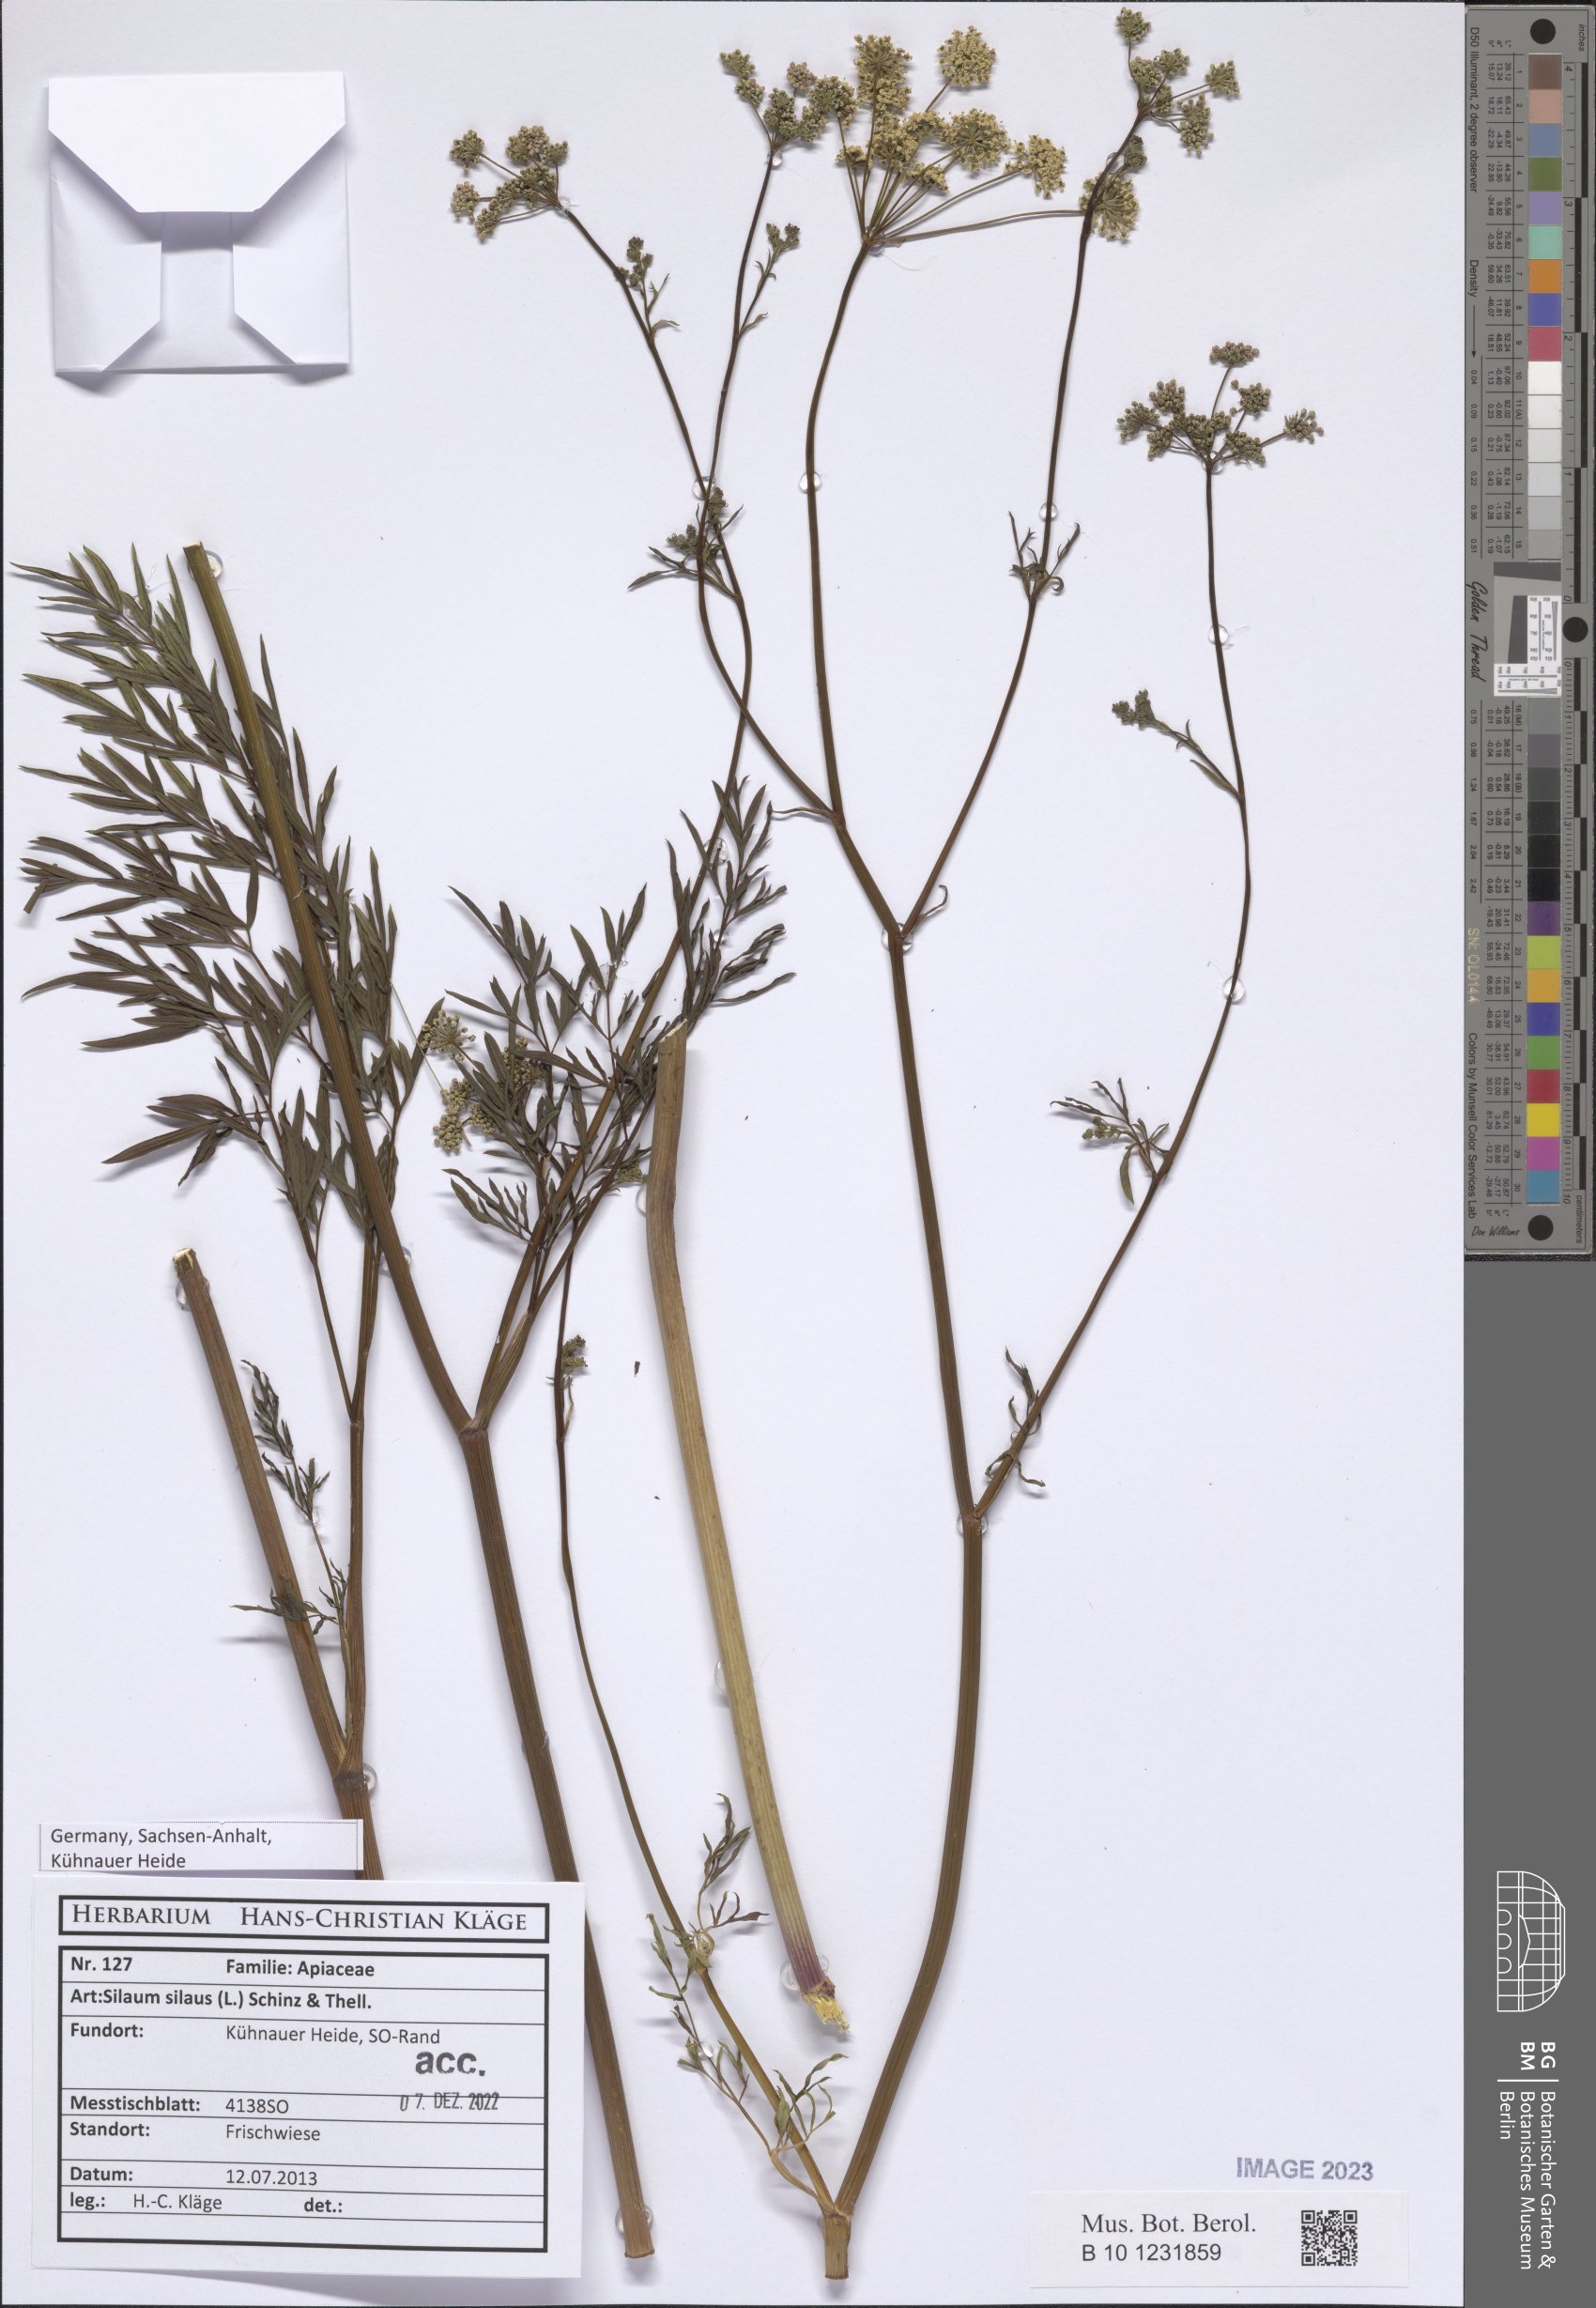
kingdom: Plantae
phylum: Tracheophyta
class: Magnoliopsida
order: Apiales
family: Apiaceae
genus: Silaum
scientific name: Silaum silaus
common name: Pepper-saxifrage
